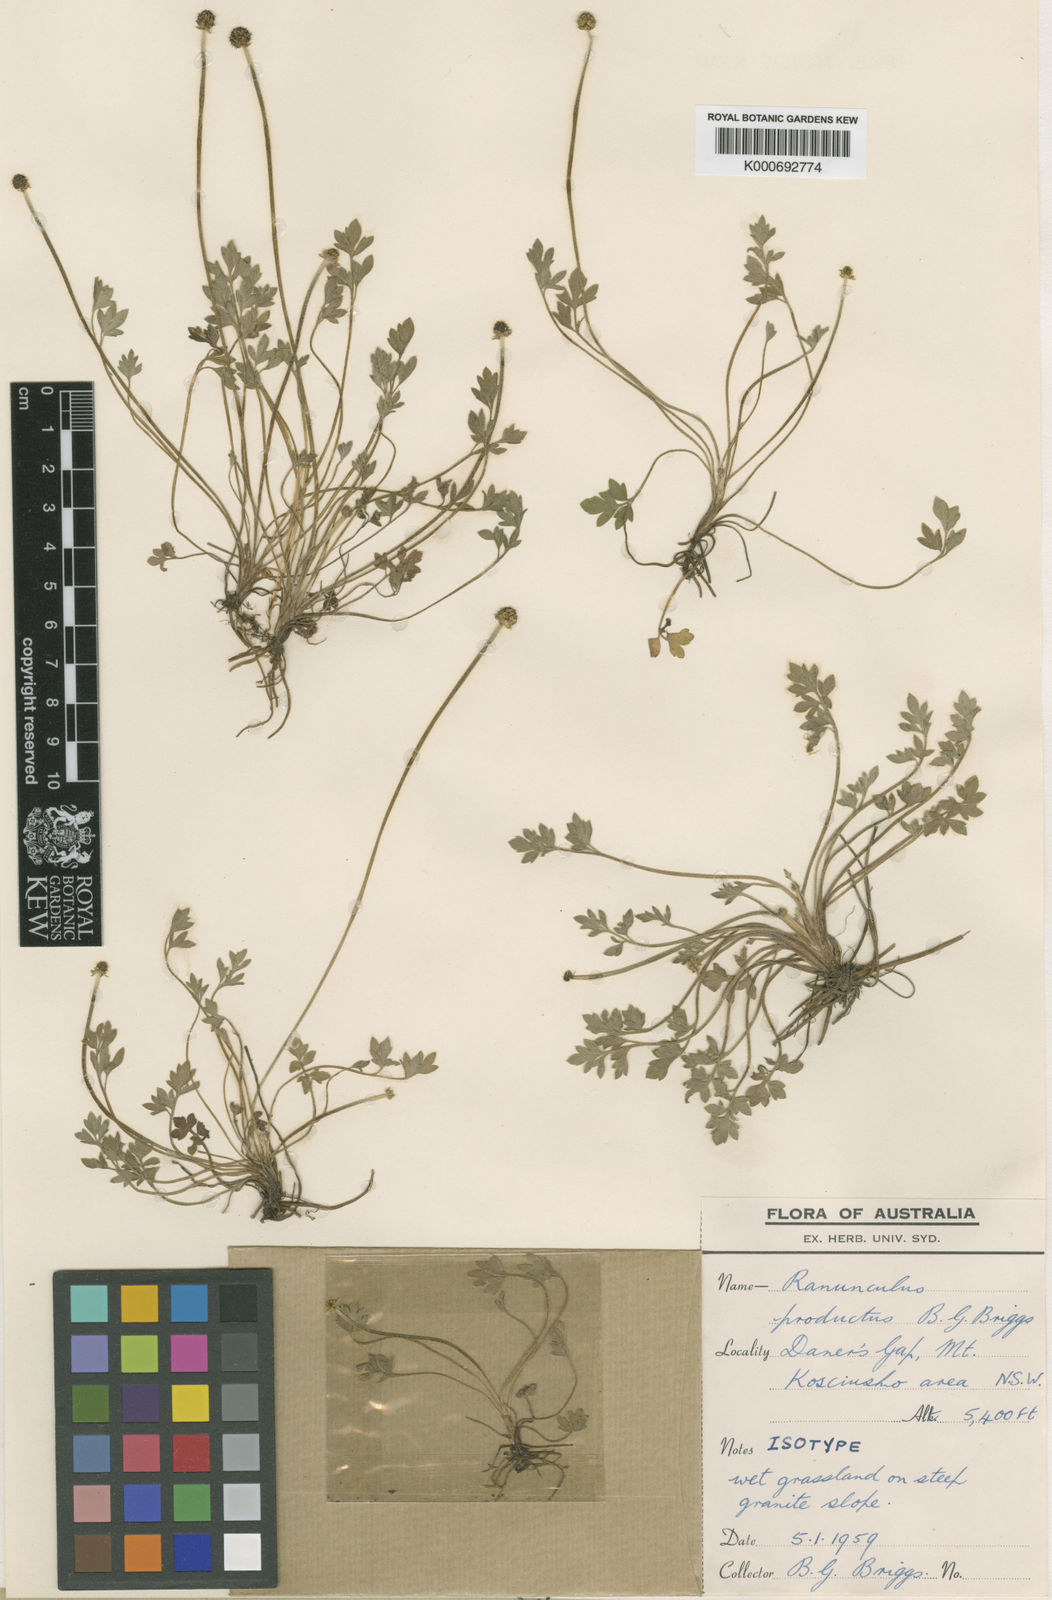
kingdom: Plantae
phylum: Tracheophyta
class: Magnoliopsida
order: Ranunculales
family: Ranunculaceae
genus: Ranunculus
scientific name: Ranunculus productus
